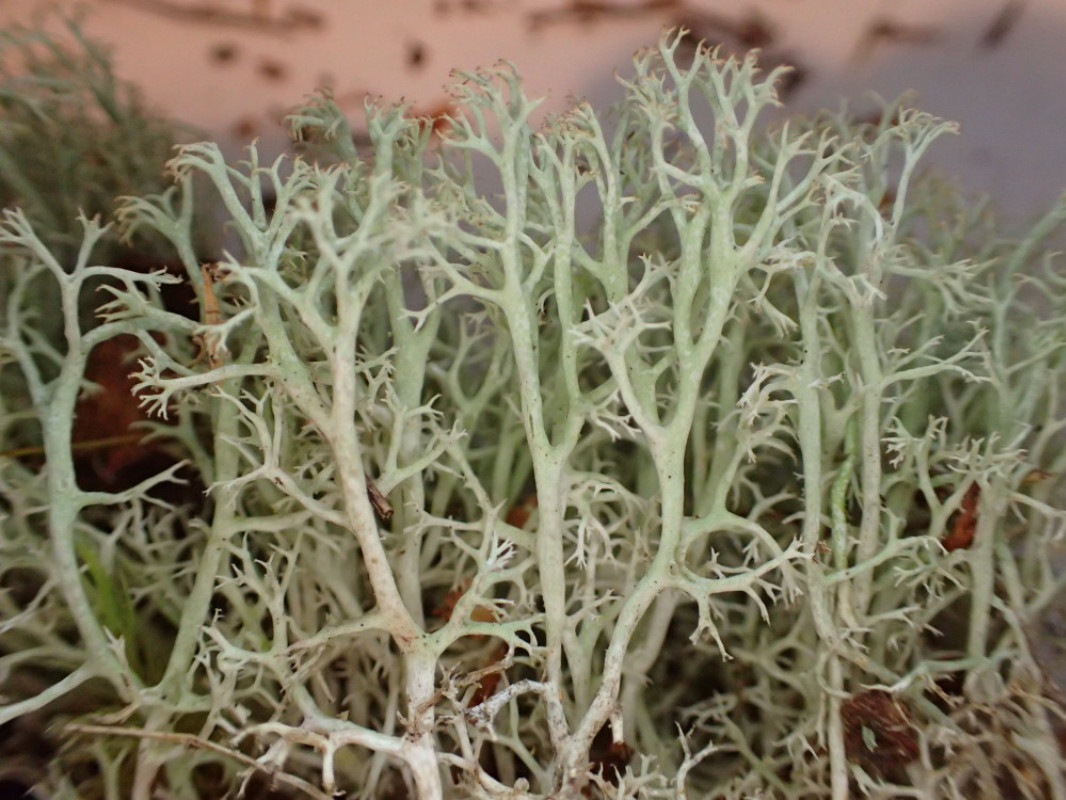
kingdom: Fungi
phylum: Ascomycota
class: Lecanoromycetes
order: Lecanorales
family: Cladoniaceae
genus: Cladonia
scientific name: Cladonia ciliata
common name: spinkel rensdyrlav
